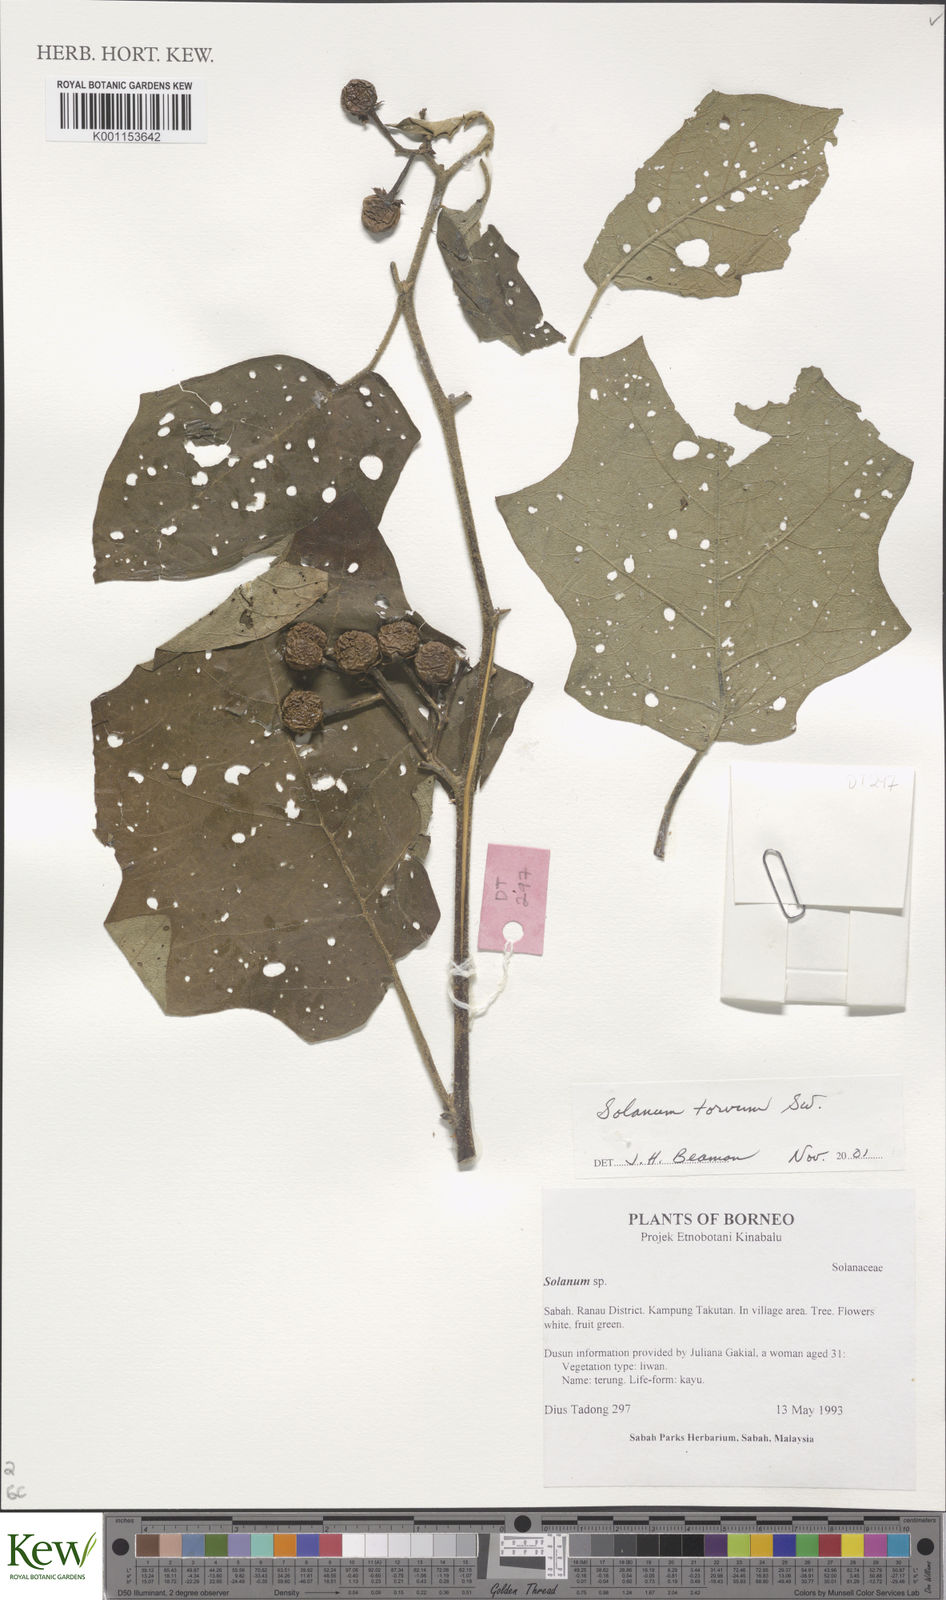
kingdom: Plantae
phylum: Tracheophyta
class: Magnoliopsida
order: Solanales
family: Solanaceae
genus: Solanum
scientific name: Solanum torvum
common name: Turkey berry
